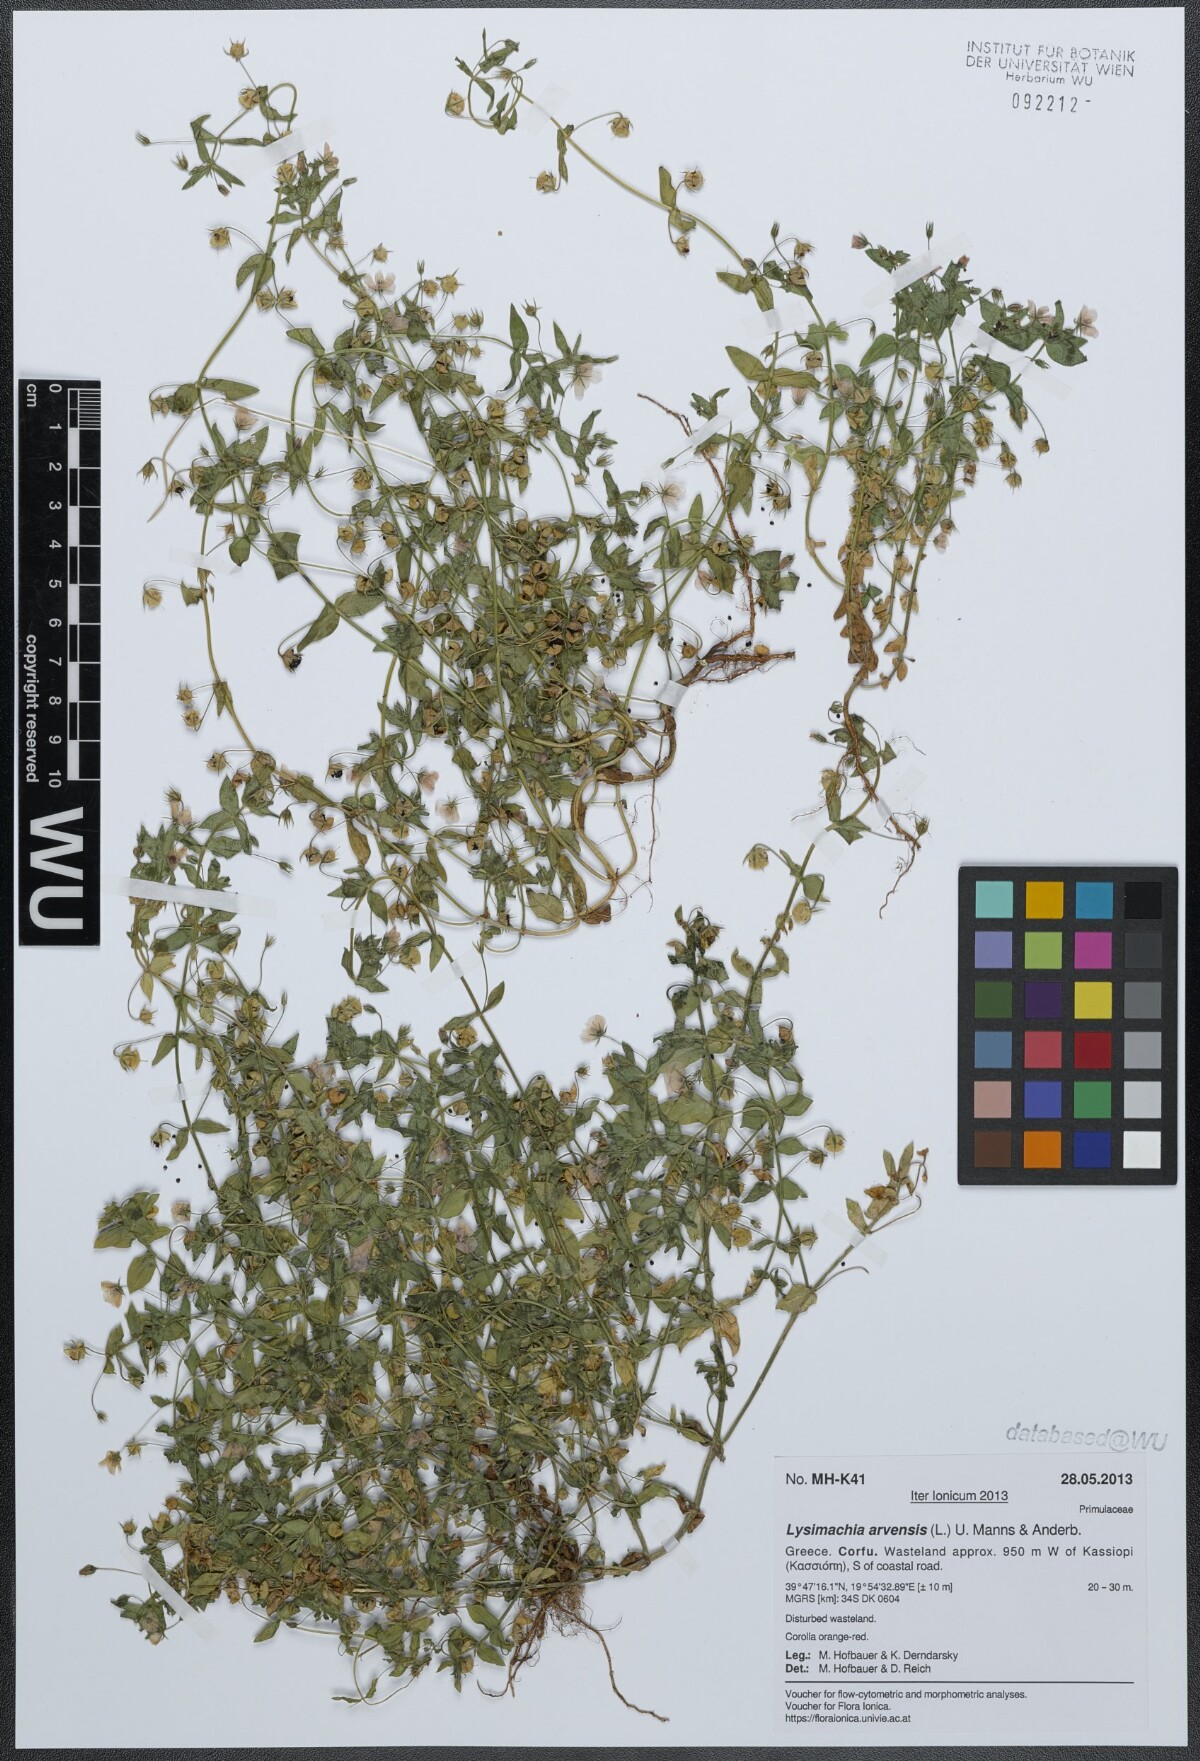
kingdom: Plantae
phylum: Tracheophyta
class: Magnoliopsida
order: Ericales
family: Primulaceae
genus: Lysimachia
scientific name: Lysimachia arvensis
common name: Scarlet pimpernel
